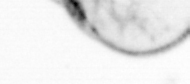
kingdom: Chromista
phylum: Myzozoa
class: Dinophyceae
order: Noctilucales
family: Noctilucaceae
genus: Noctiluca
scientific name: Noctiluca scintillans
